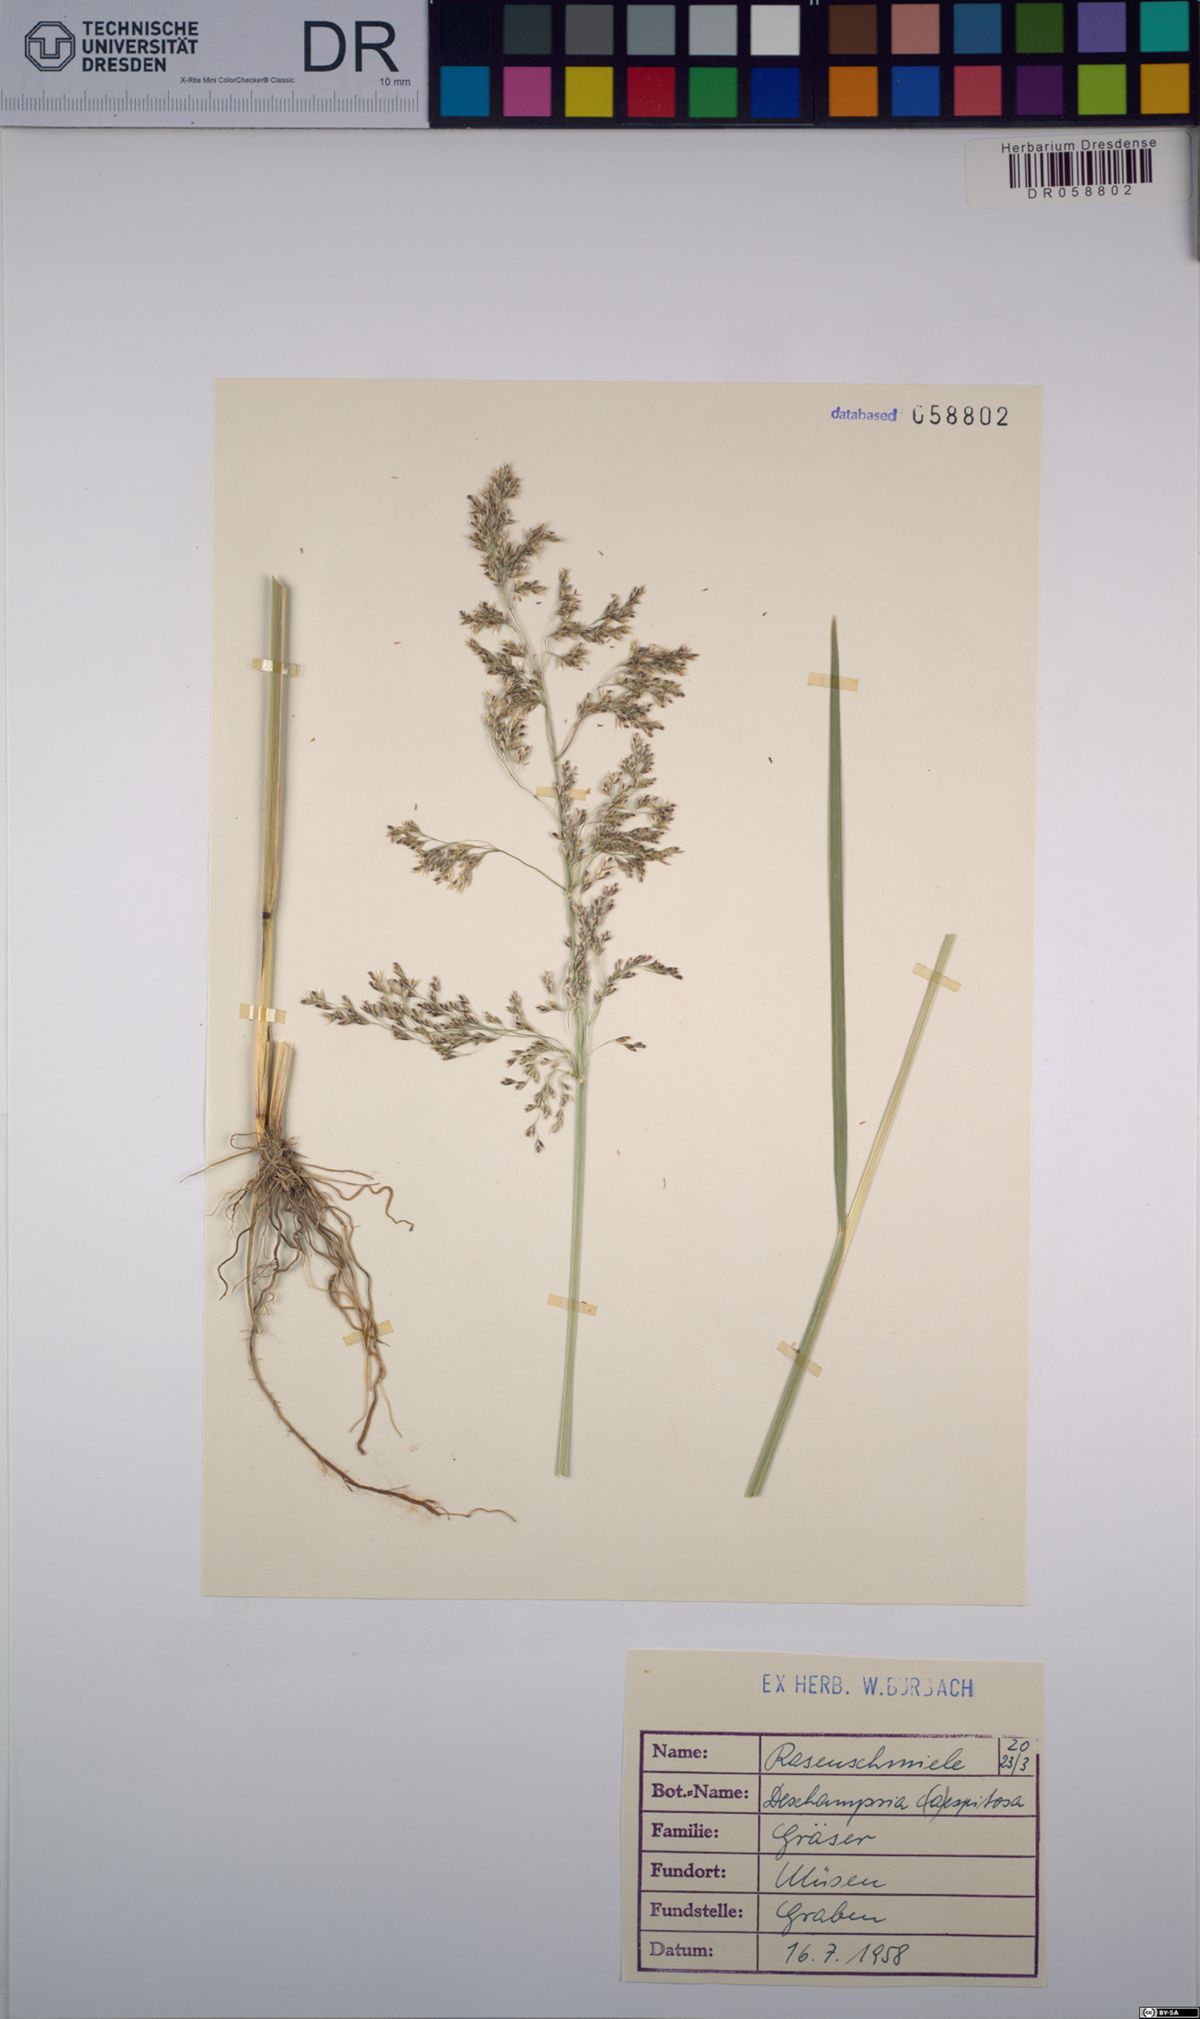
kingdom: Plantae
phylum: Tracheophyta
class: Liliopsida
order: Poales
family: Poaceae
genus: Deschampsia
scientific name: Deschampsia cespitosa
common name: Tufted hair-grass
